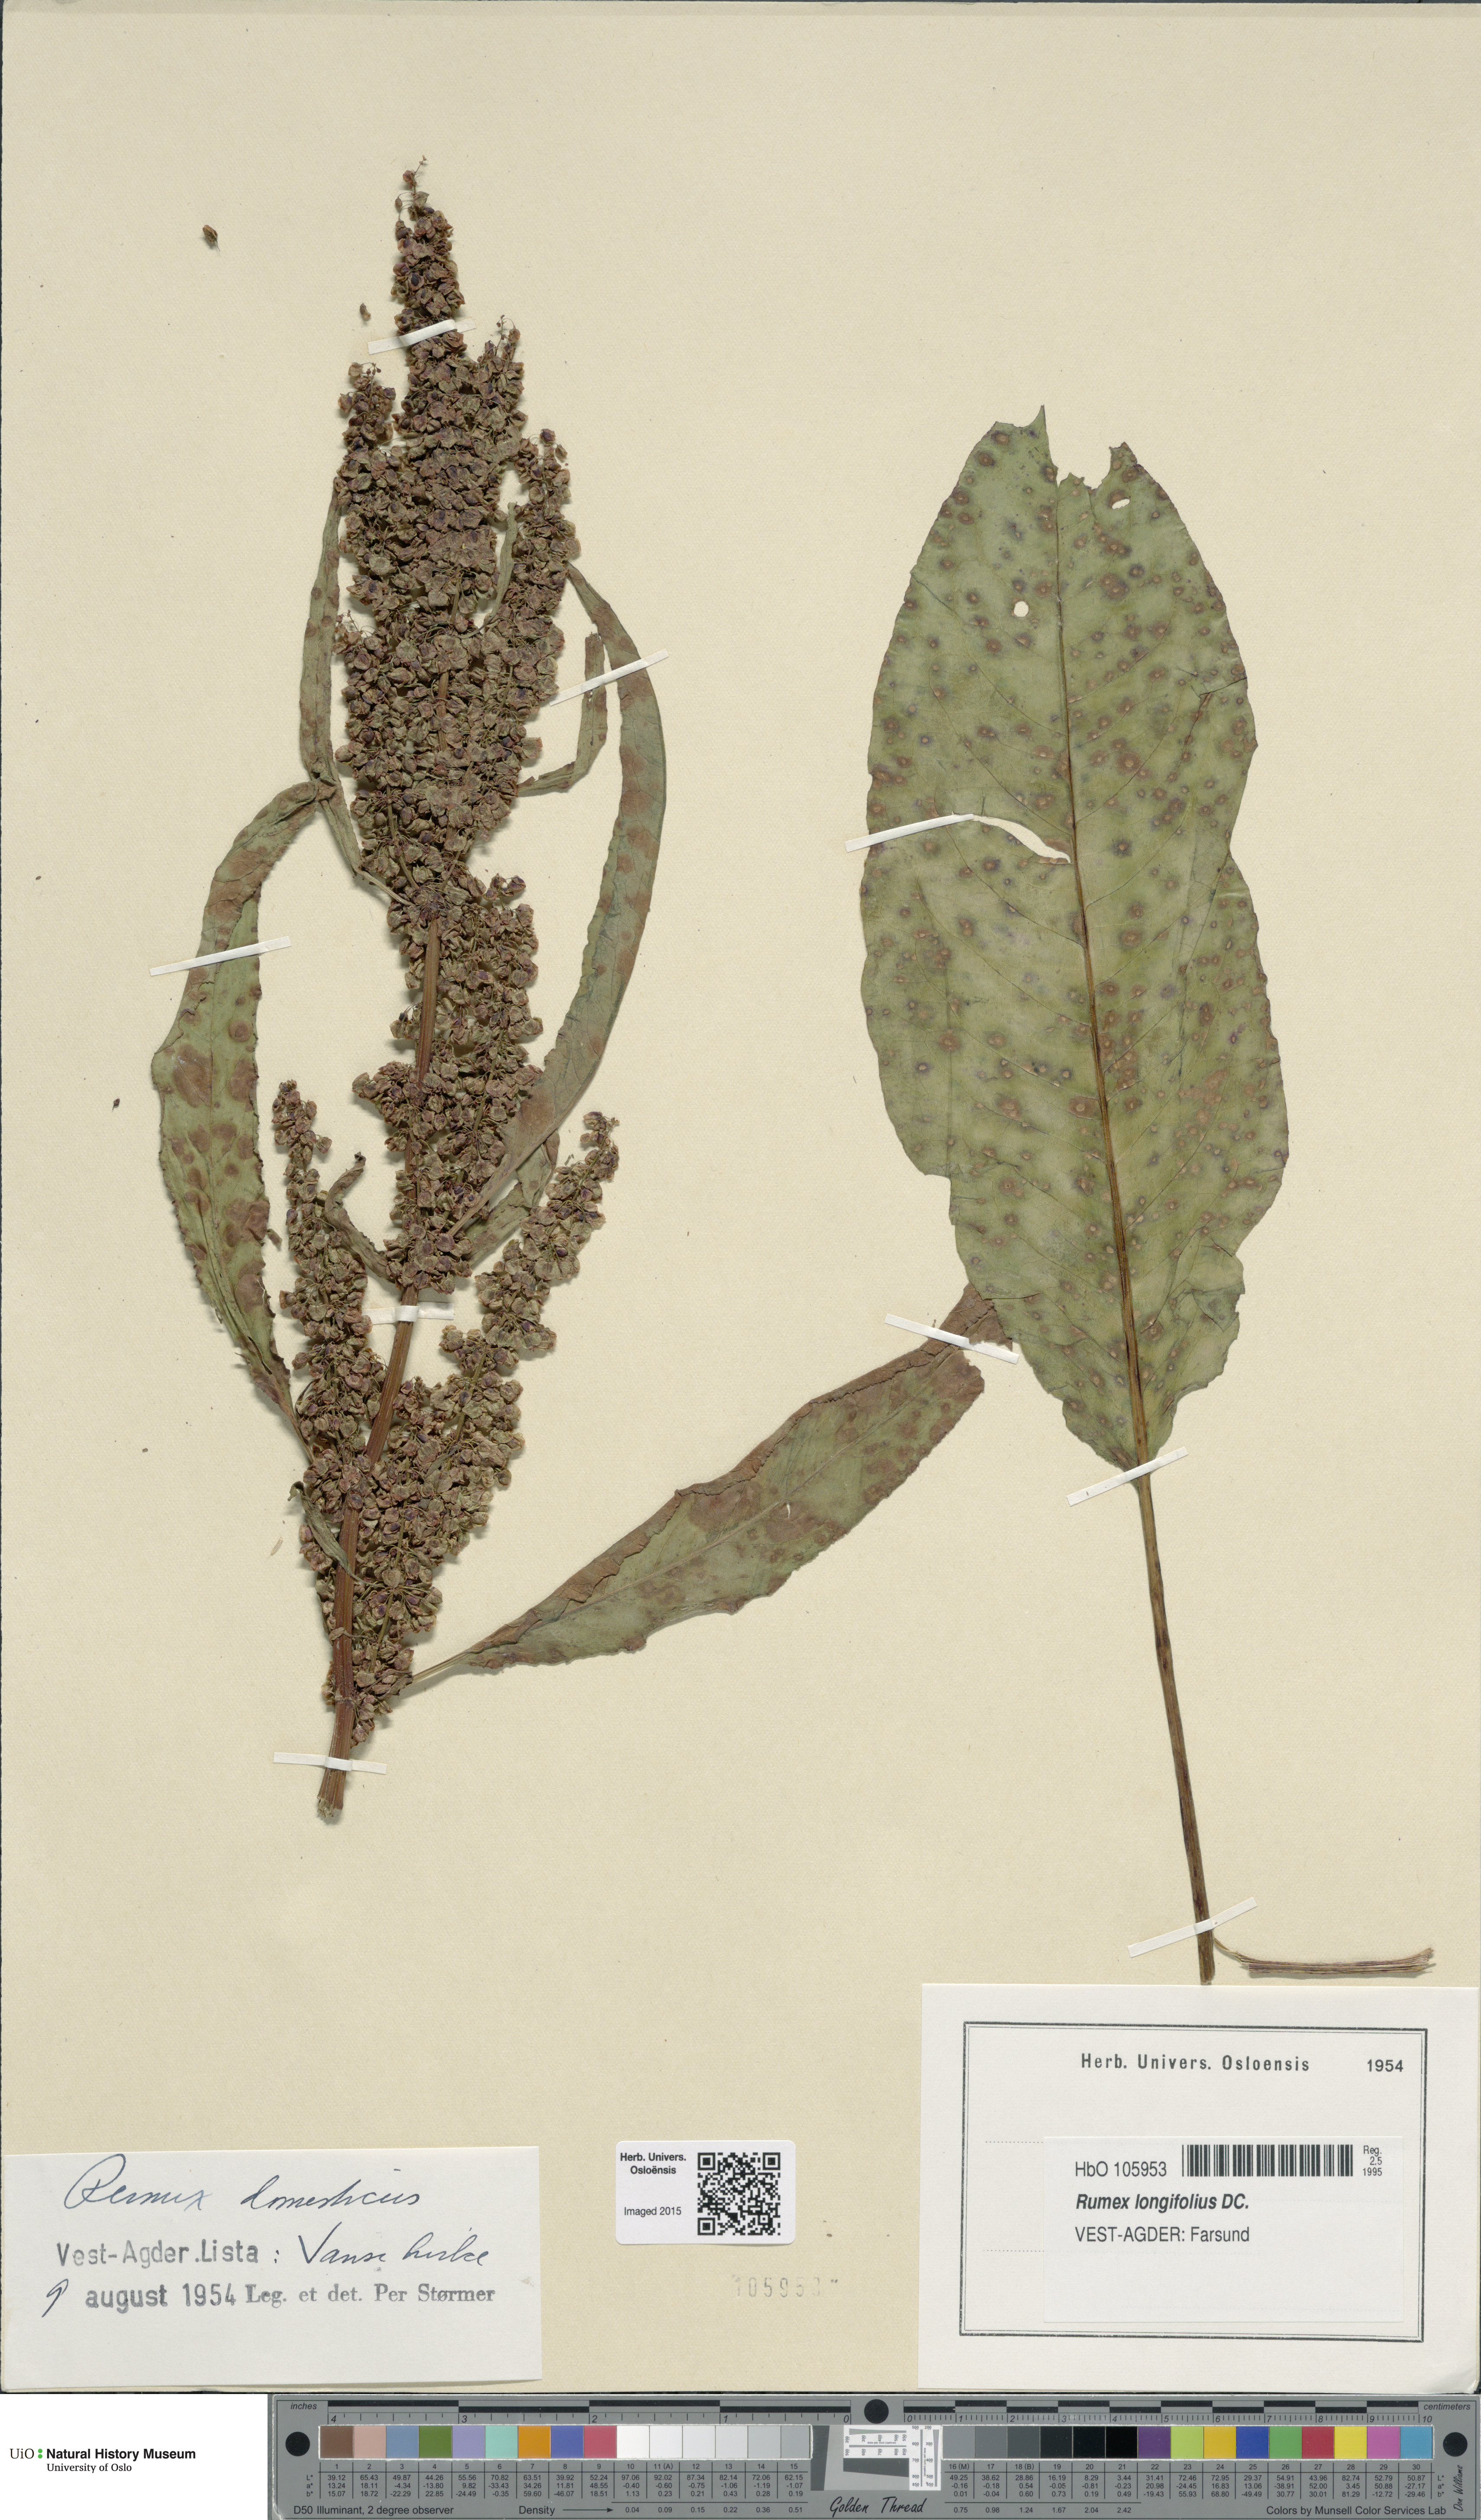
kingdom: Plantae
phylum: Tracheophyta
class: Magnoliopsida
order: Caryophyllales
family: Polygonaceae
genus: Rumex
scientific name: Rumex longifolius
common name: Dooryard dock
